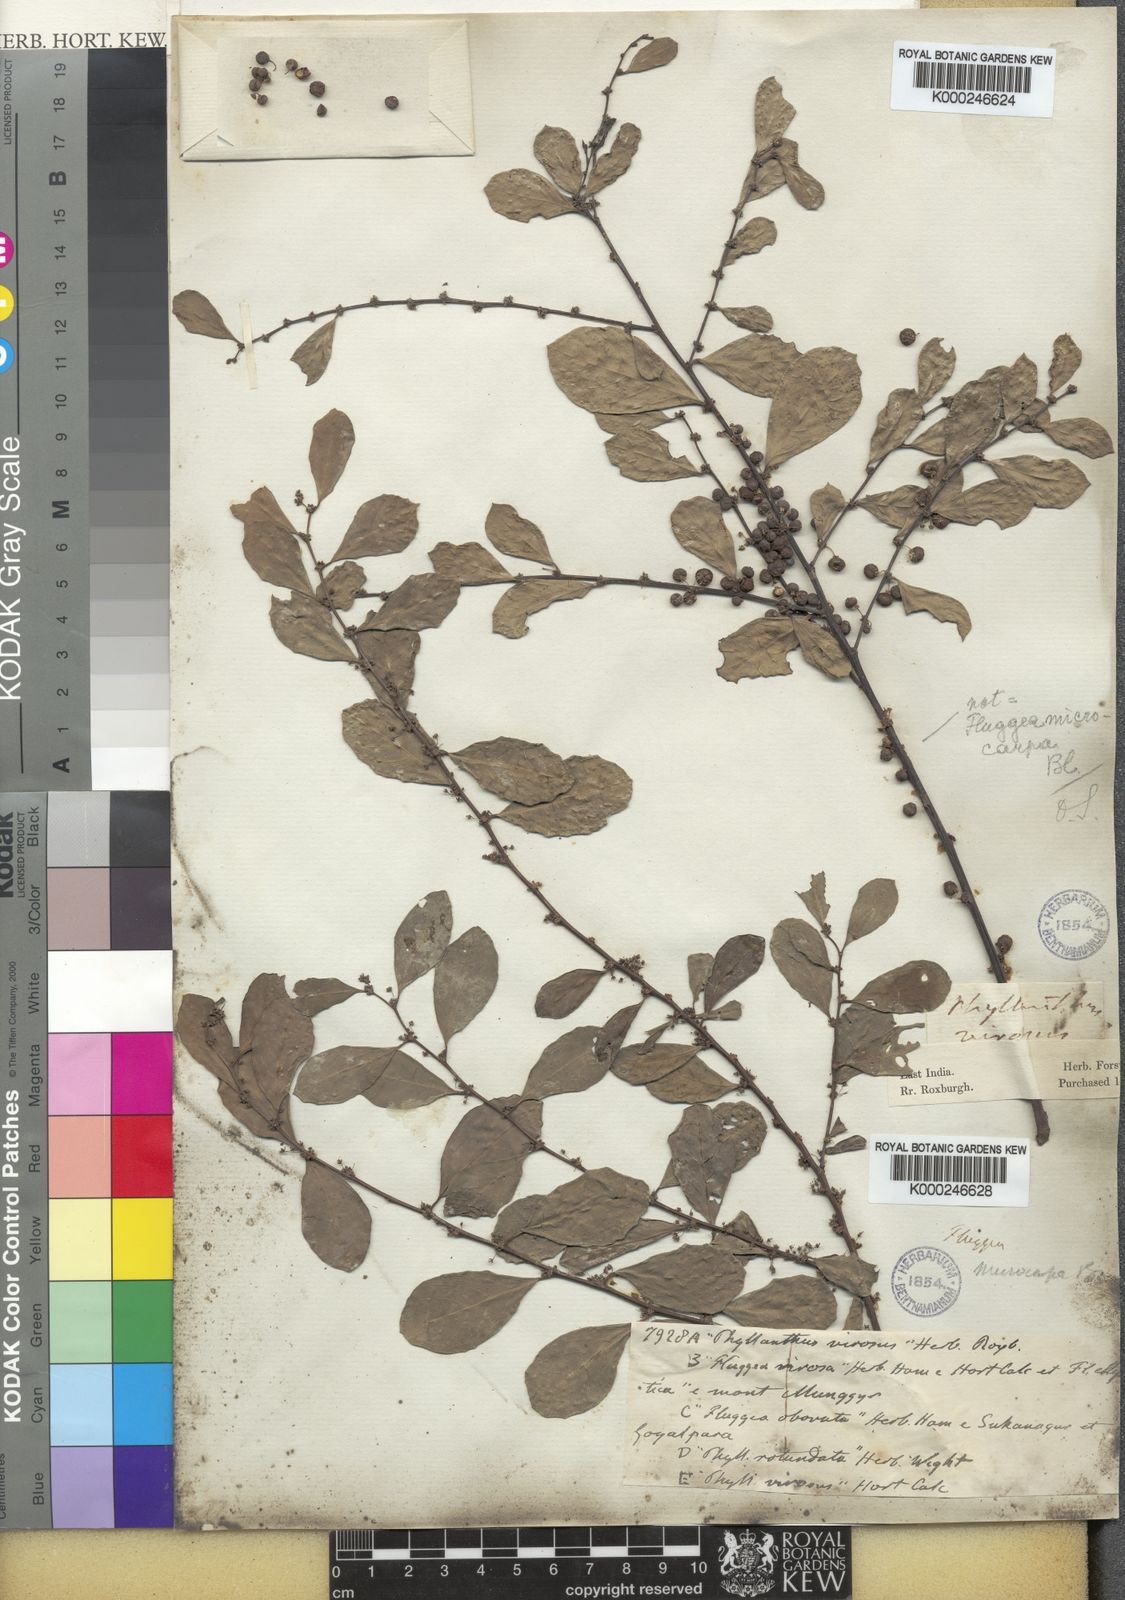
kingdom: Plantae
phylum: Tracheophyta
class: Magnoliopsida
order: Malpighiales
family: Phyllanthaceae
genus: Flueggea
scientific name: Flueggea virosa
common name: Common bushweed
